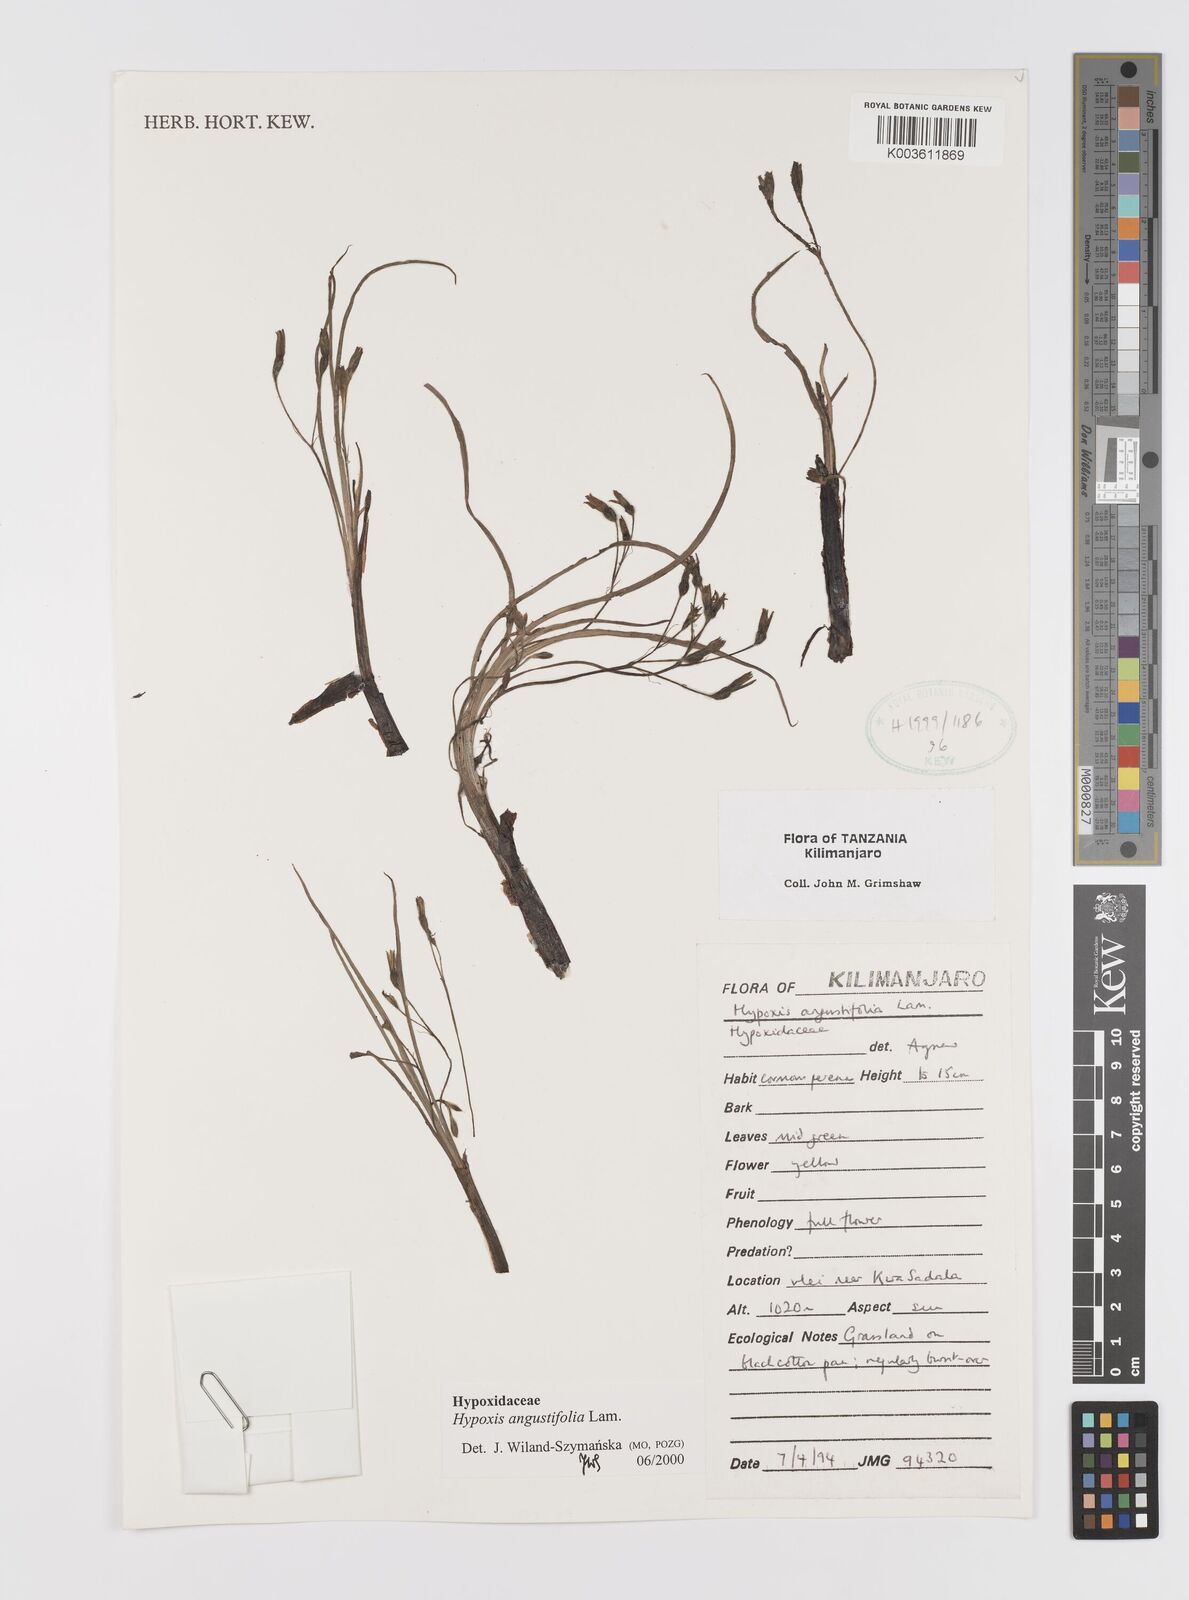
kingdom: Plantae
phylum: Tracheophyta
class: Liliopsida
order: Asparagales
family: Hypoxidaceae
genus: Hypoxis
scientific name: Hypoxis angustifolia
